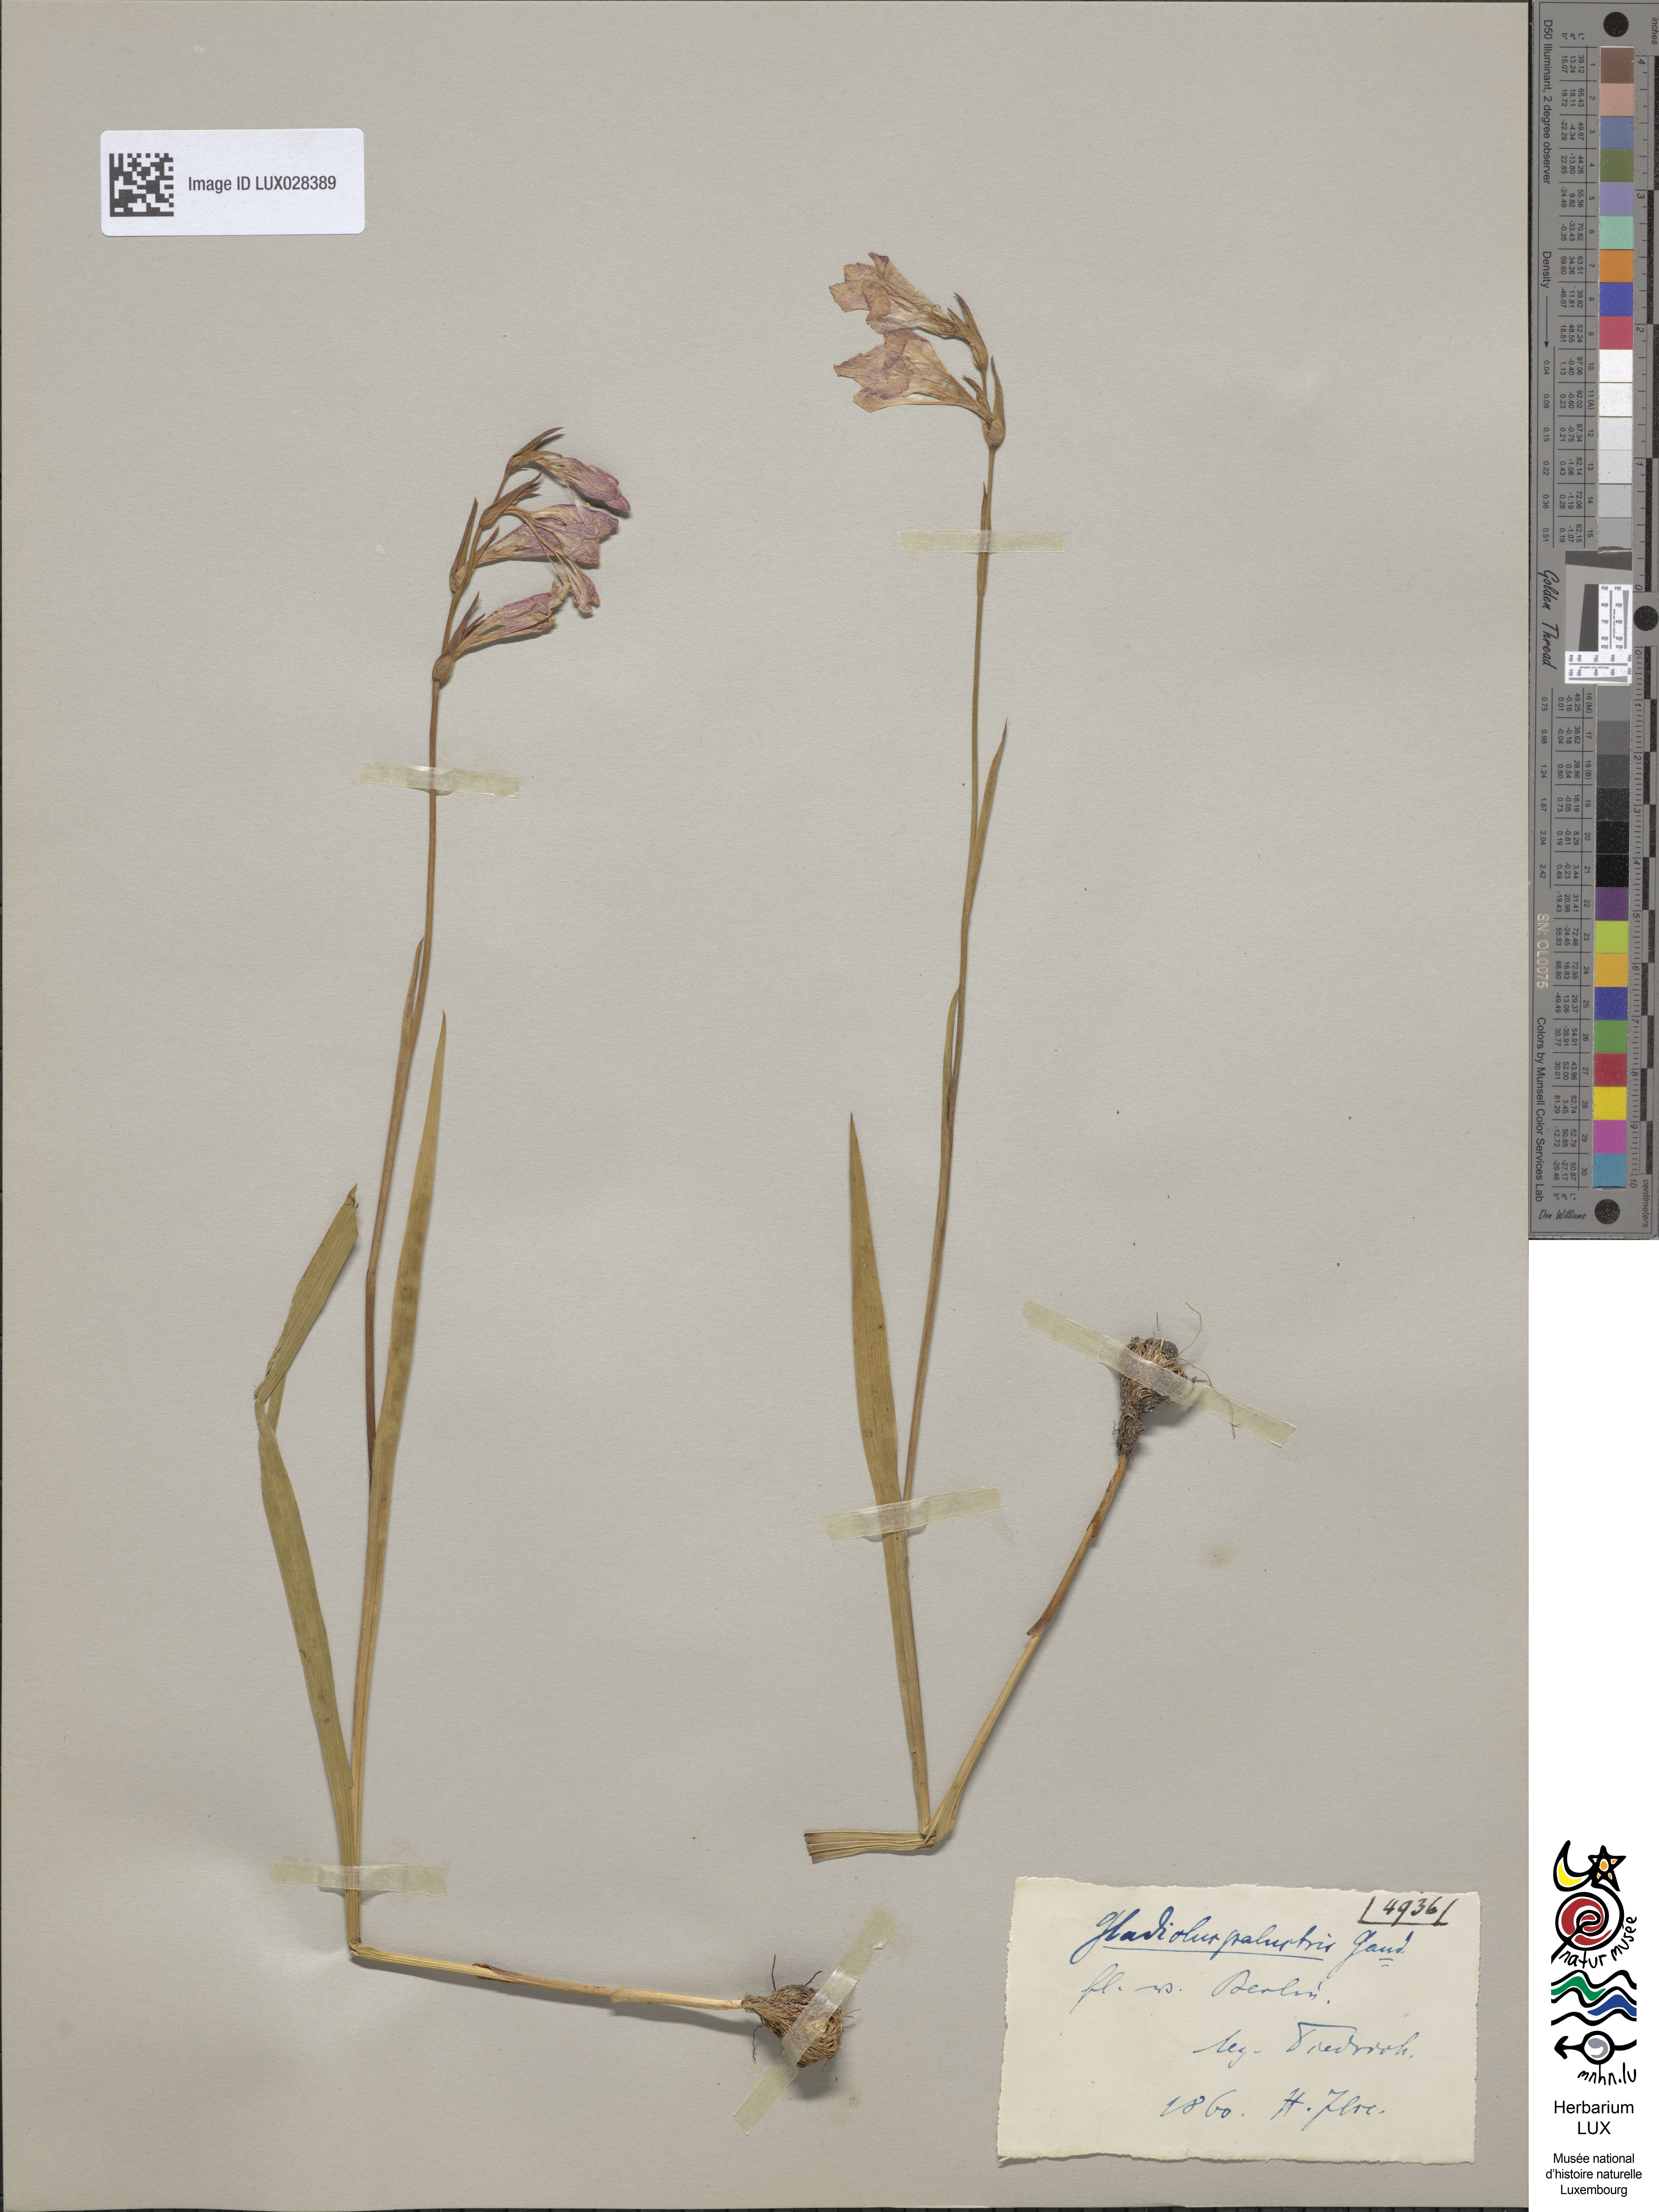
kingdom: Plantae
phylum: Tracheophyta
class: Liliopsida
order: Asparagales
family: Iridaceae
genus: Gladiolus
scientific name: Gladiolus palustris
